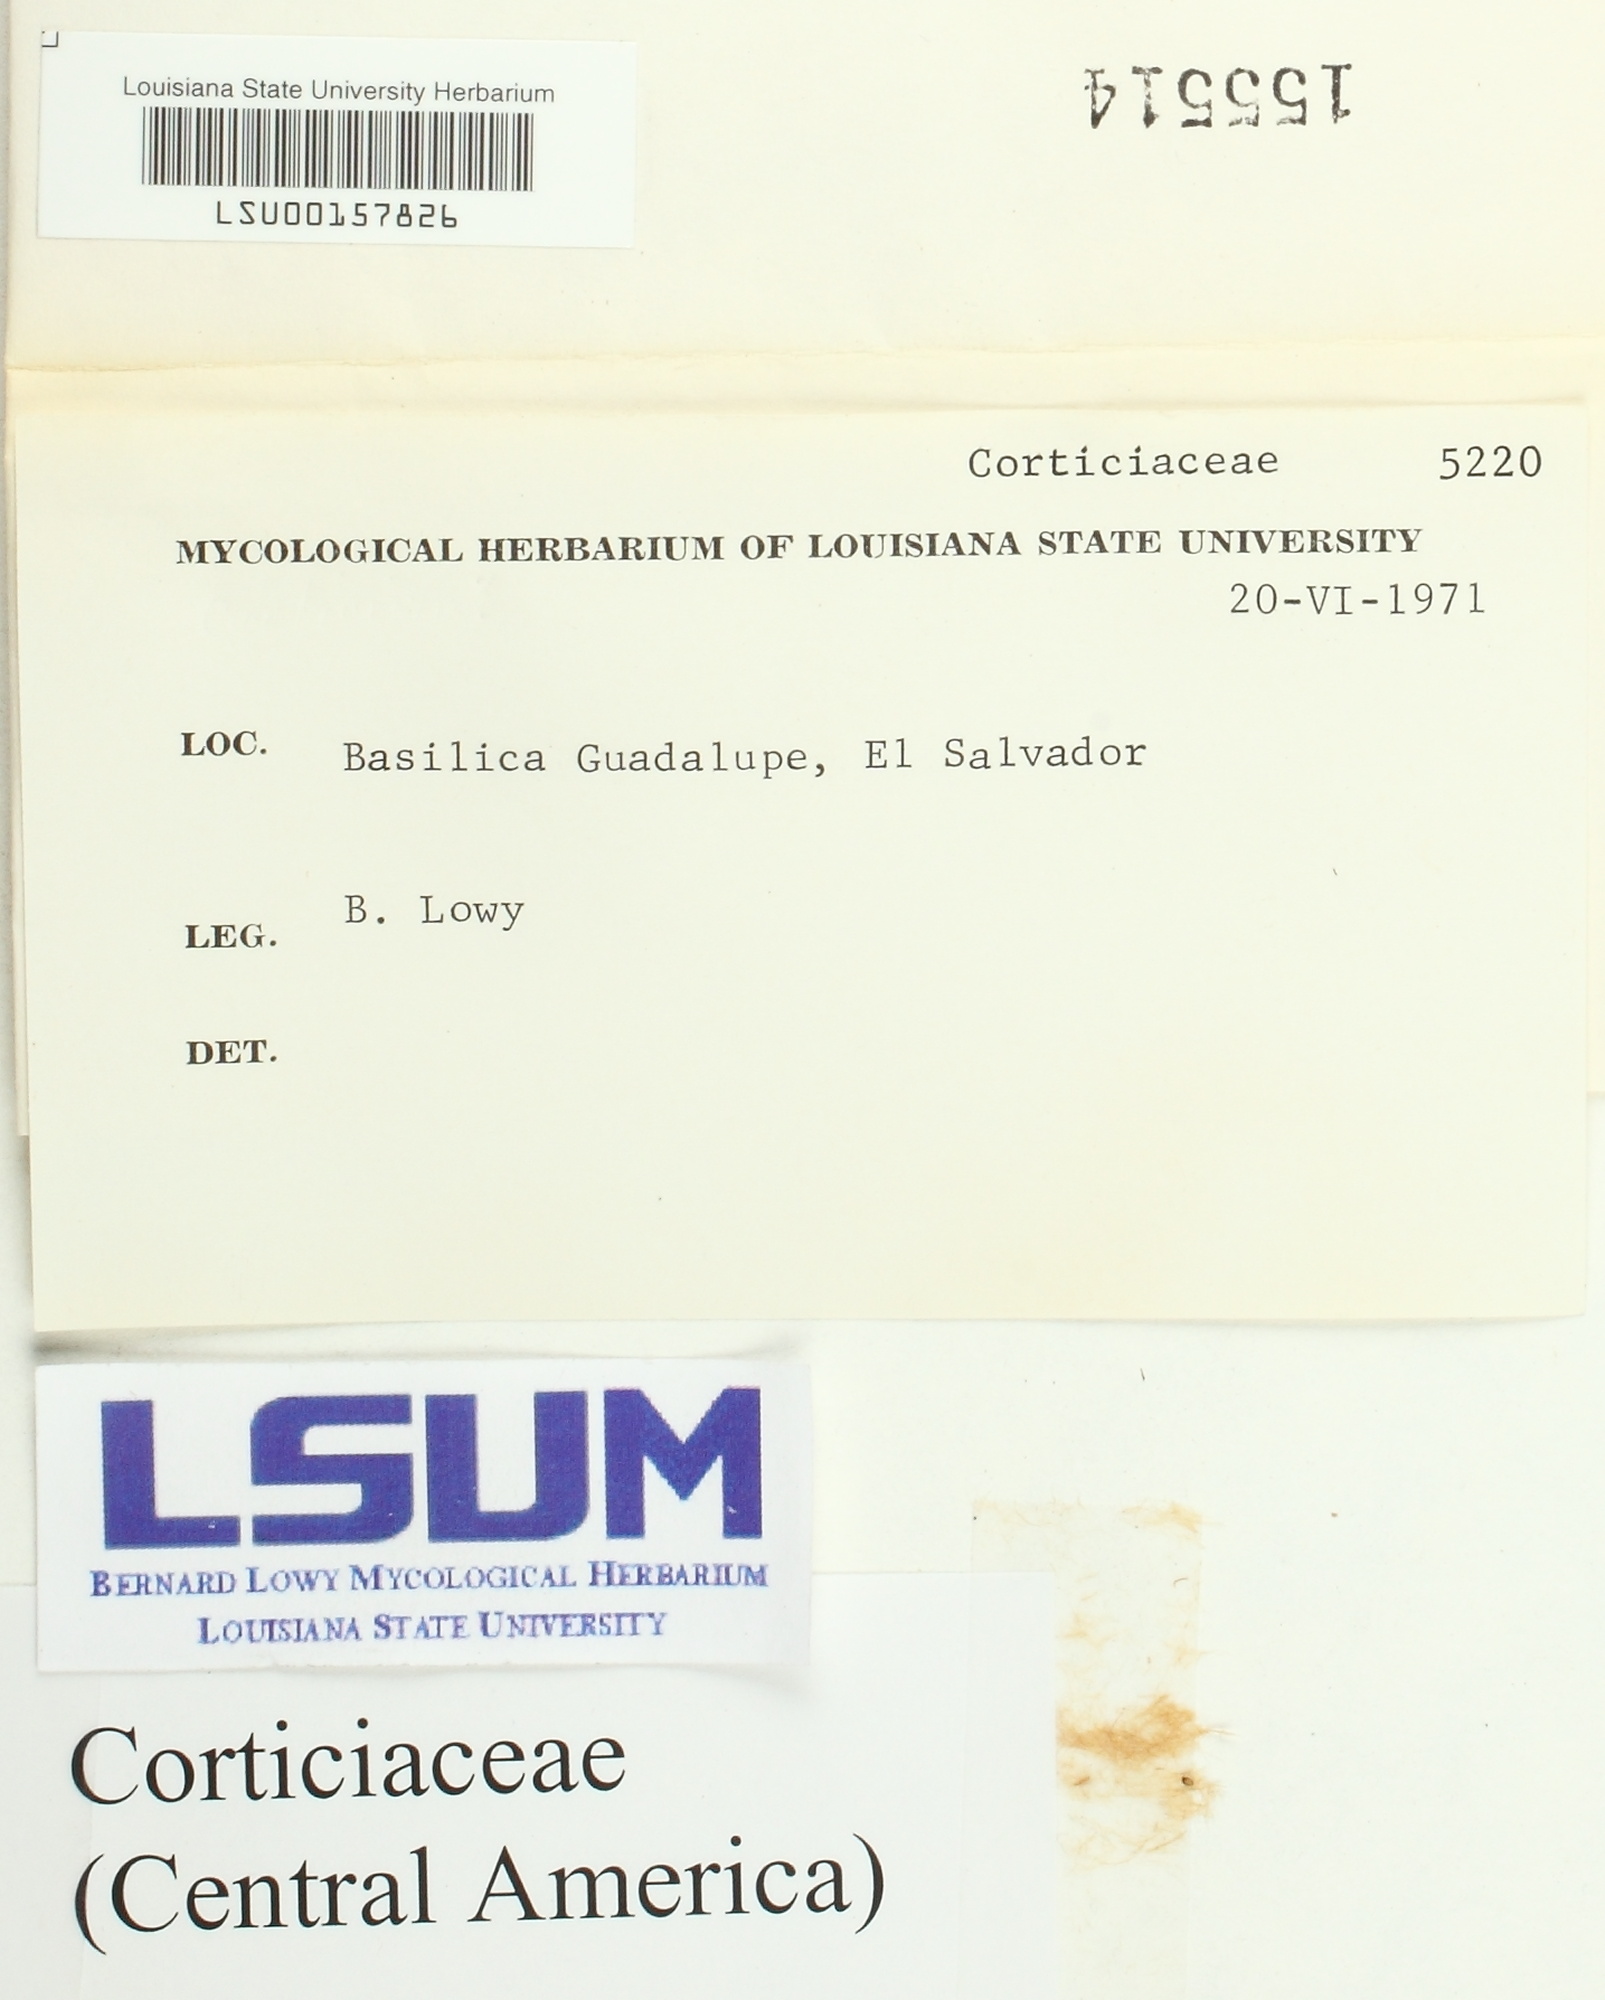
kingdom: Fungi
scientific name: Fungi
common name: Fungi
